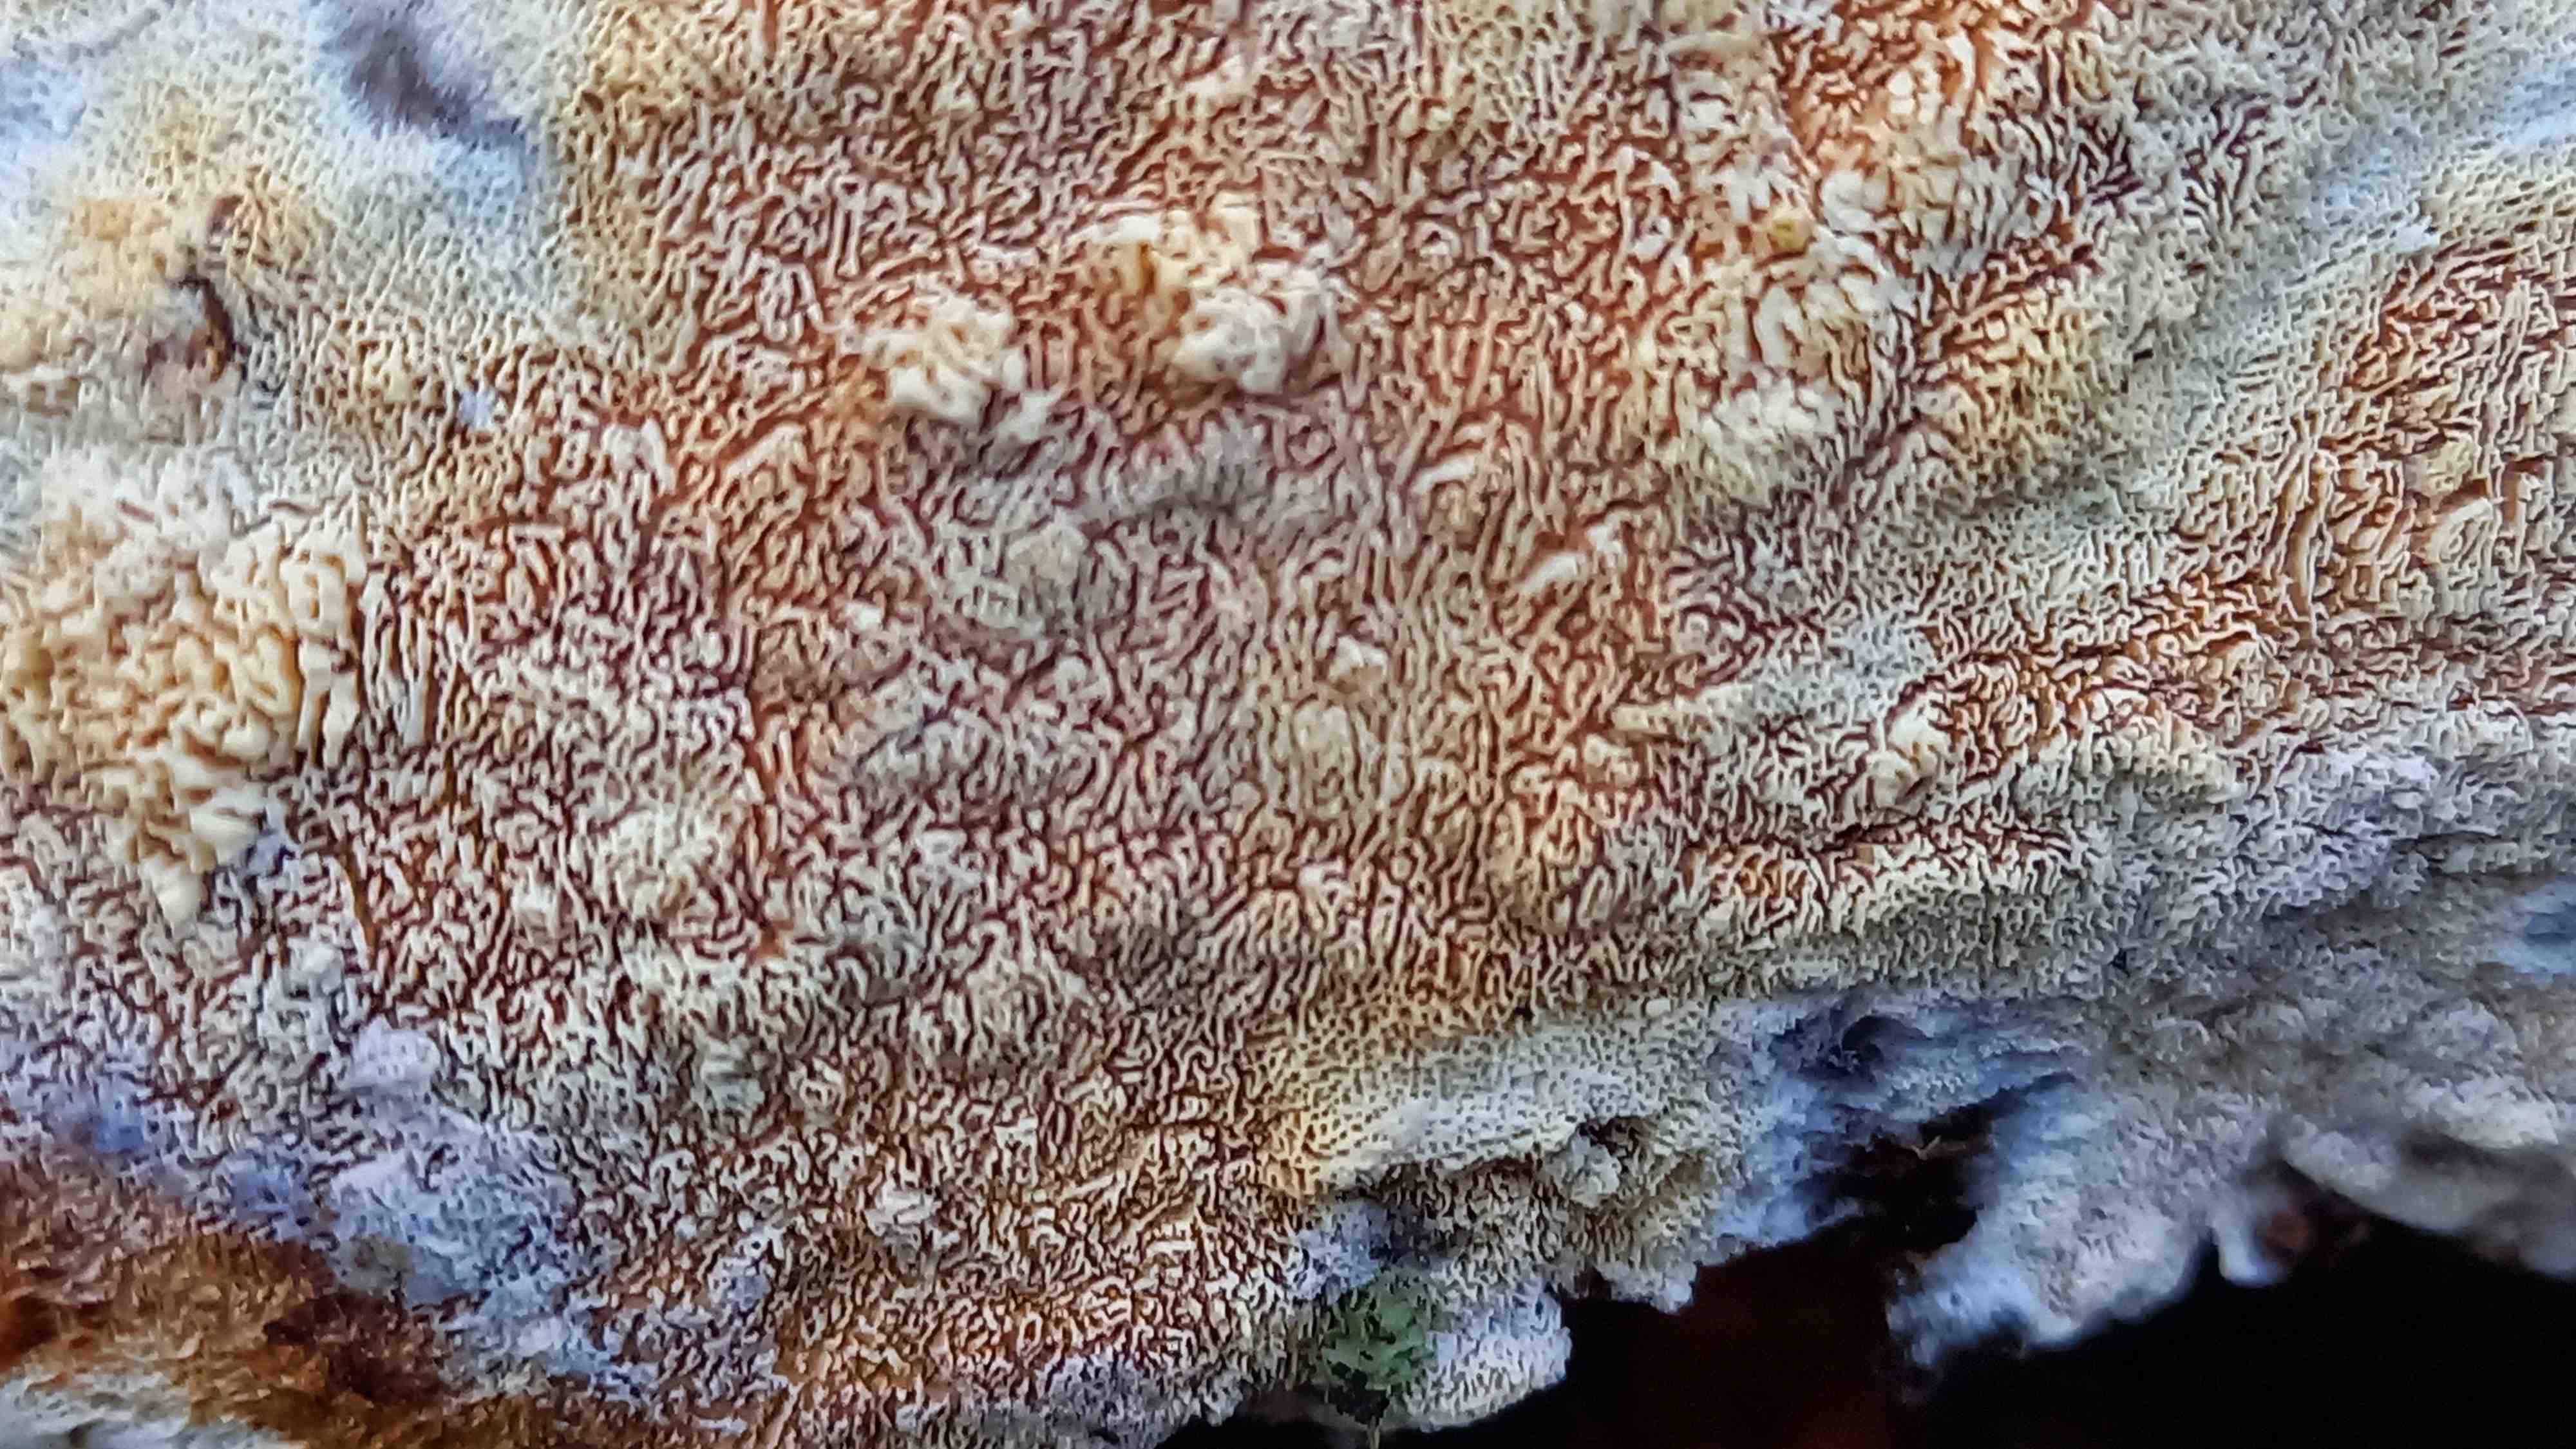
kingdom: Fungi
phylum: Basidiomycota
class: Agaricomycetes
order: Hymenochaetales
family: Schizoporaceae
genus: Xylodon
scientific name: Xylodon subtropicus
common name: labyrint-tandsvamp
